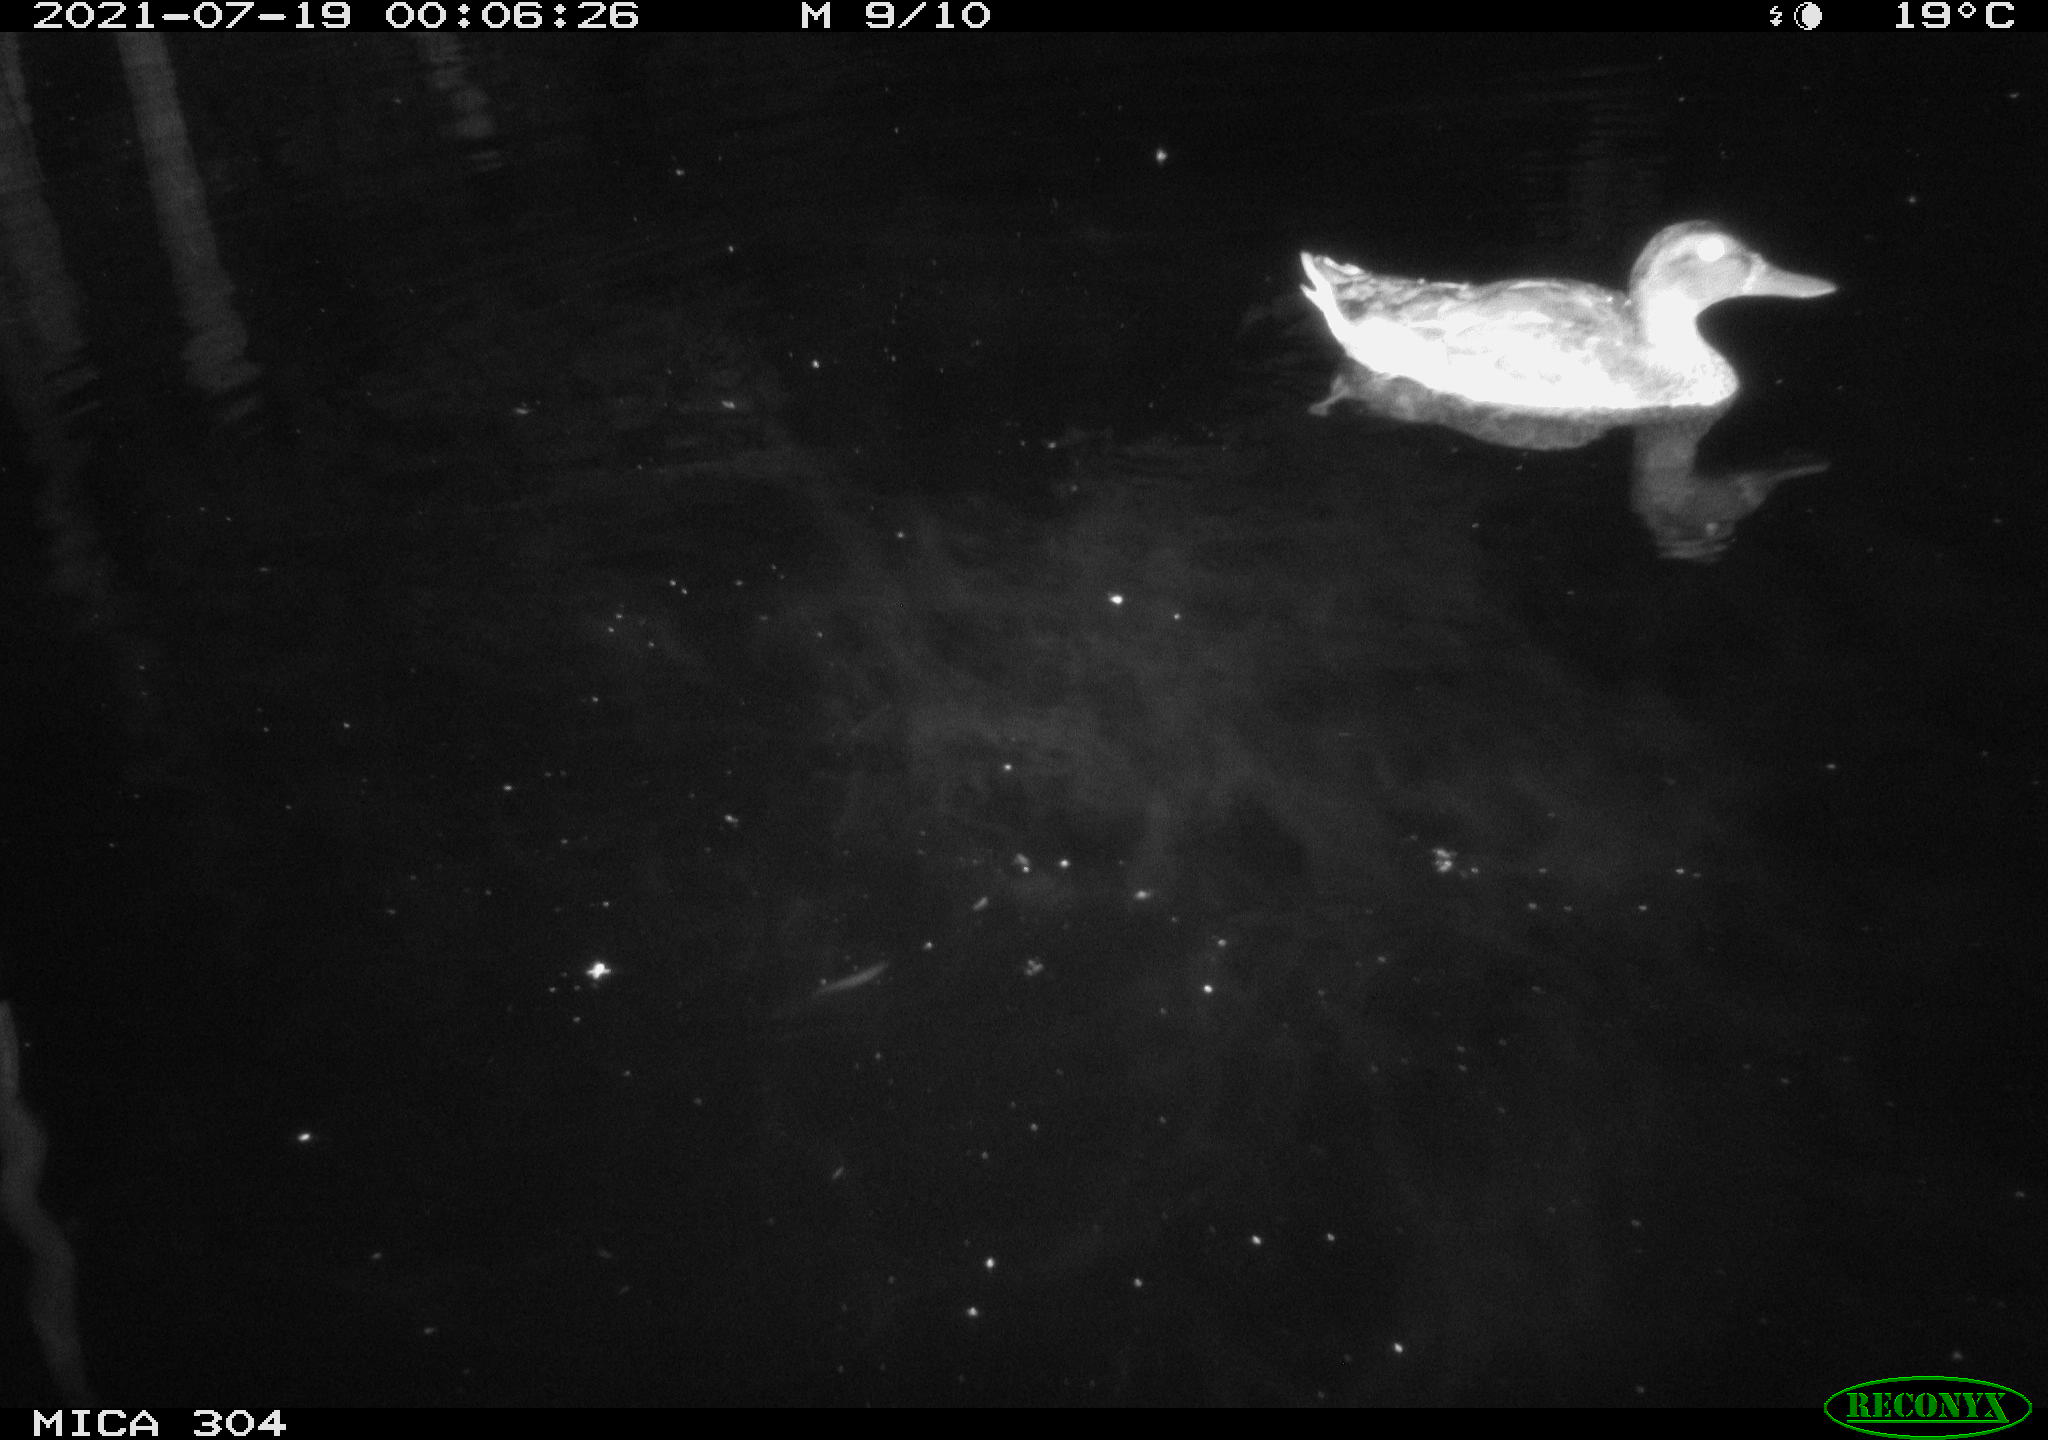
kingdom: Animalia
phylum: Chordata
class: Aves
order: Anseriformes
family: Anatidae
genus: Mareca
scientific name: Mareca strepera
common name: Gadwall
